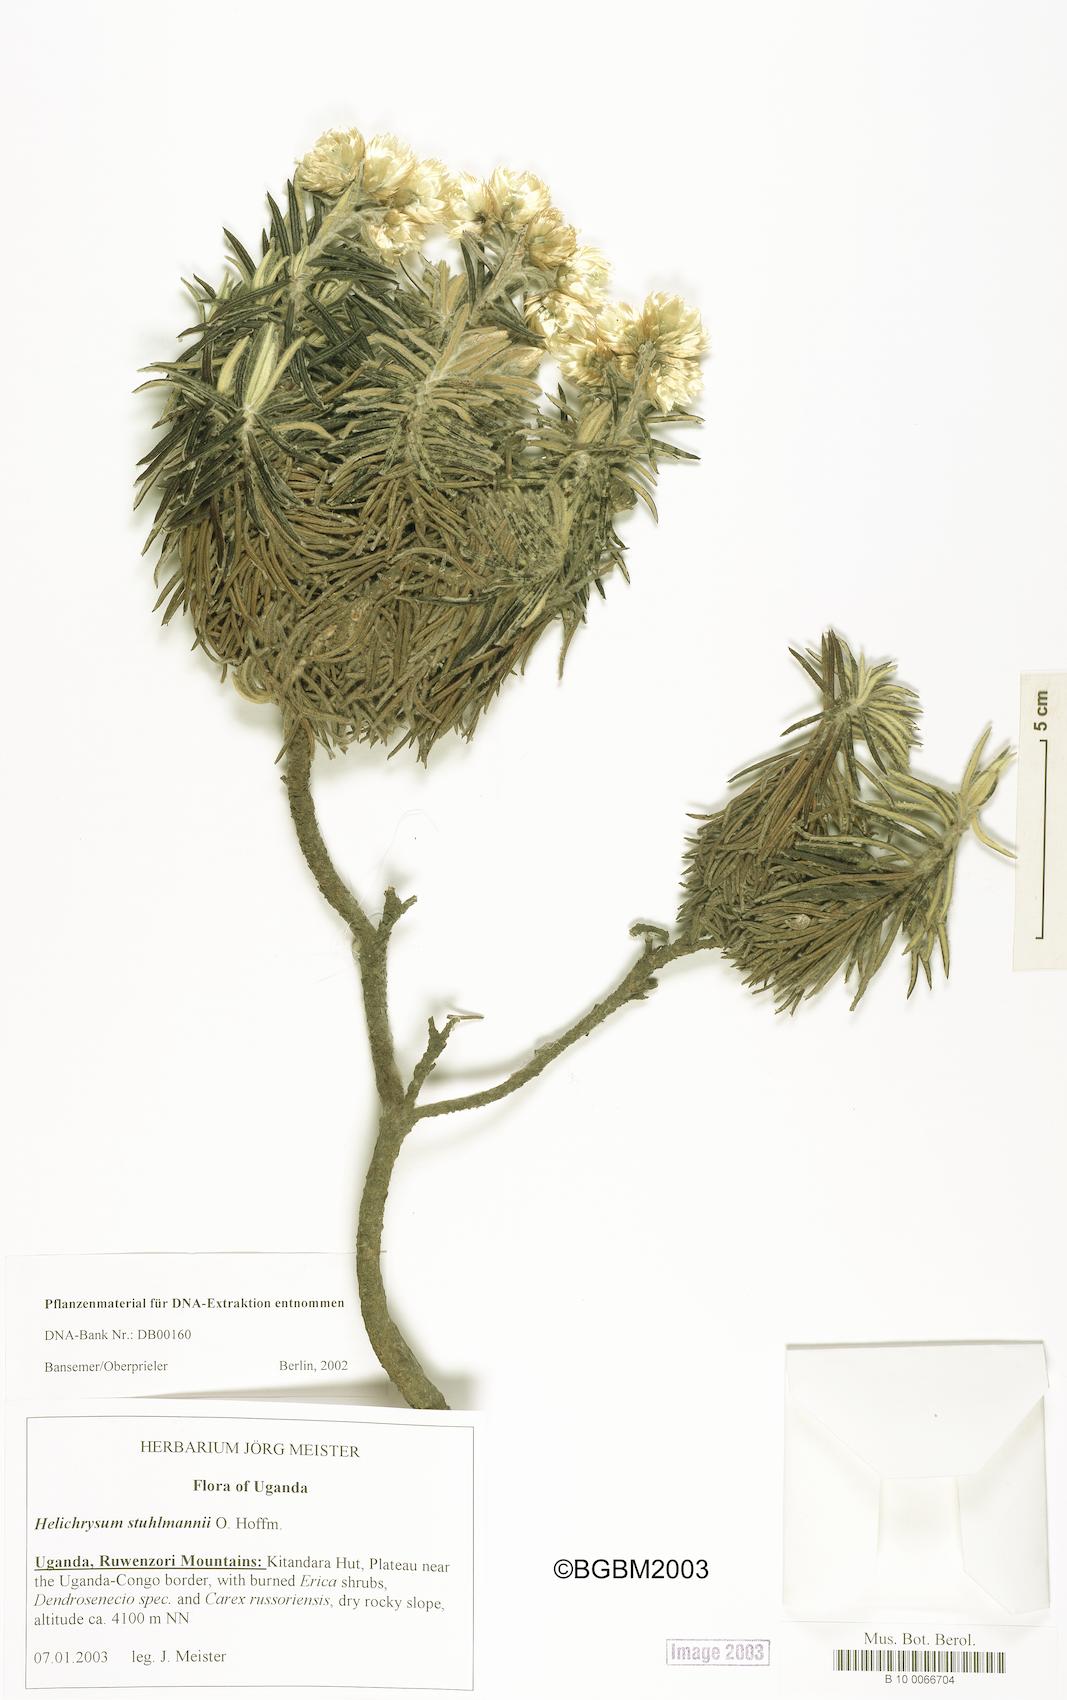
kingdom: Plantae
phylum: Tracheophyta
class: Magnoliopsida
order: Asterales
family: Asteraceae
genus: Helichrysum
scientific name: Helichrysum stuhlmannii
